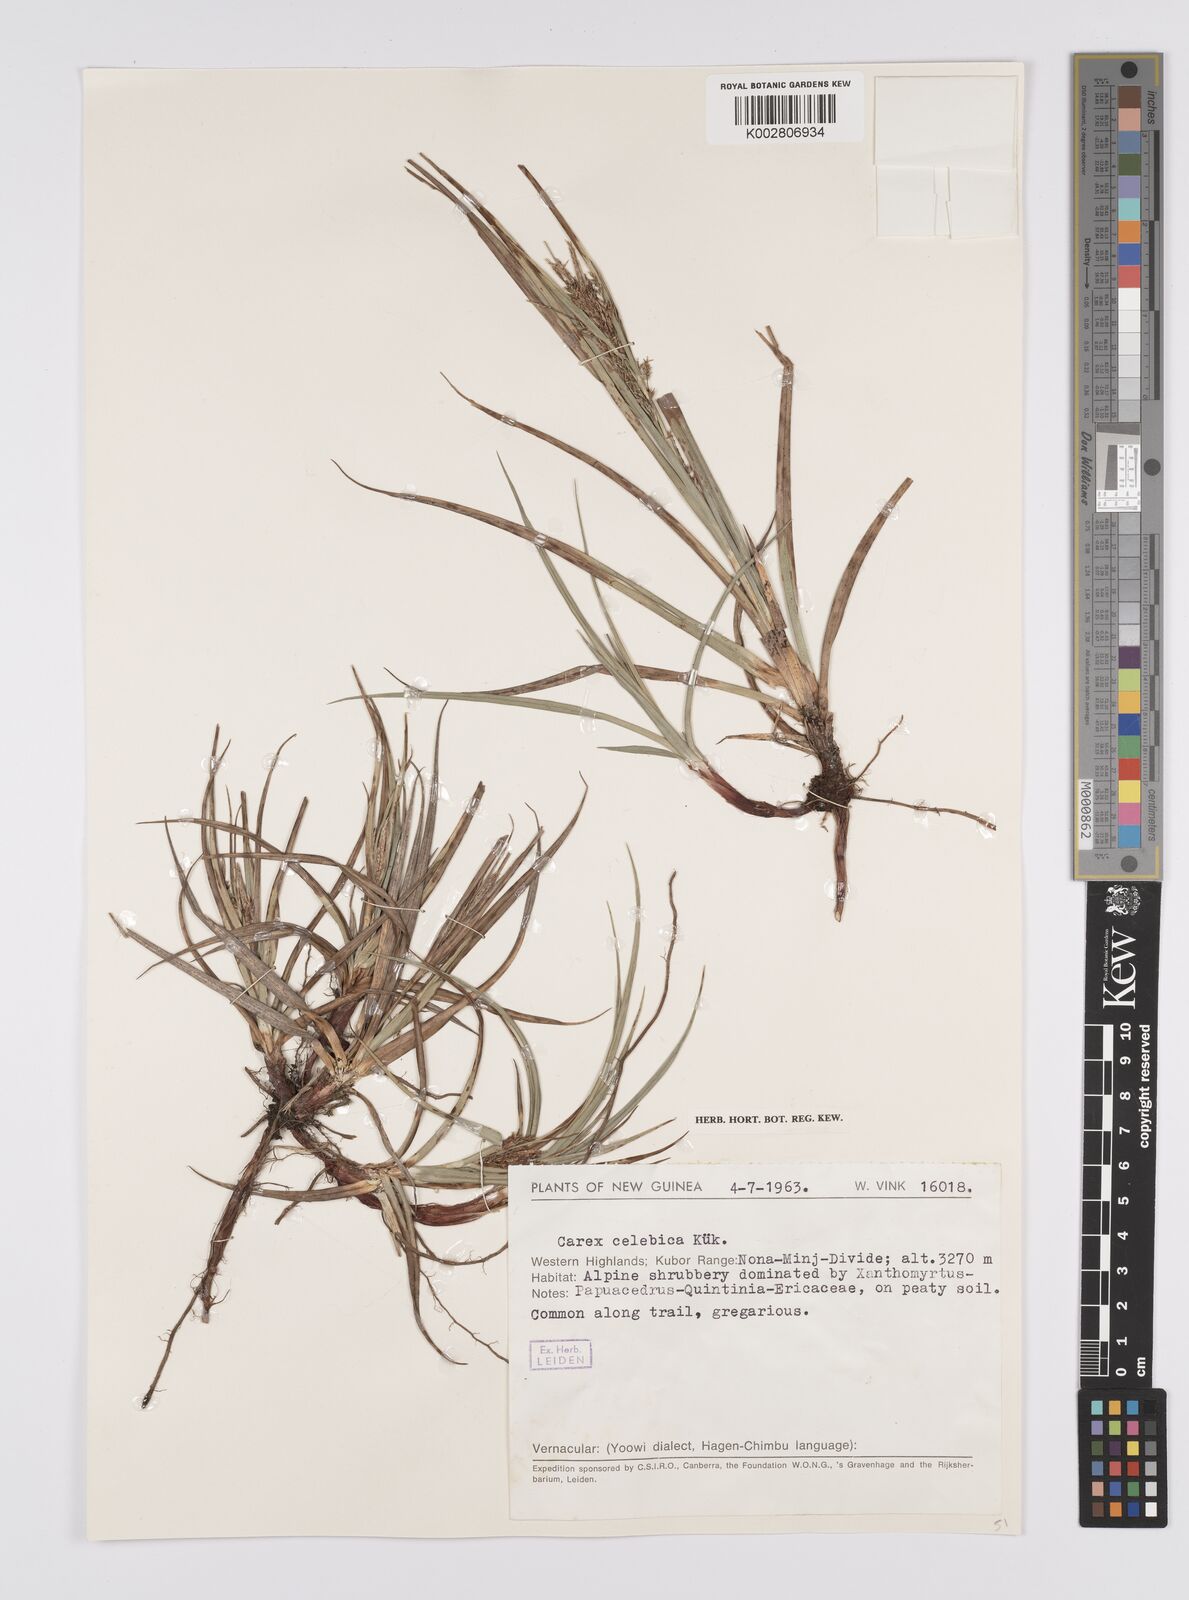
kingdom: Plantae
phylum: Tracheophyta
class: Liliopsida
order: Poales
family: Cyperaceae
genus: Carex
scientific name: Carex celebica
